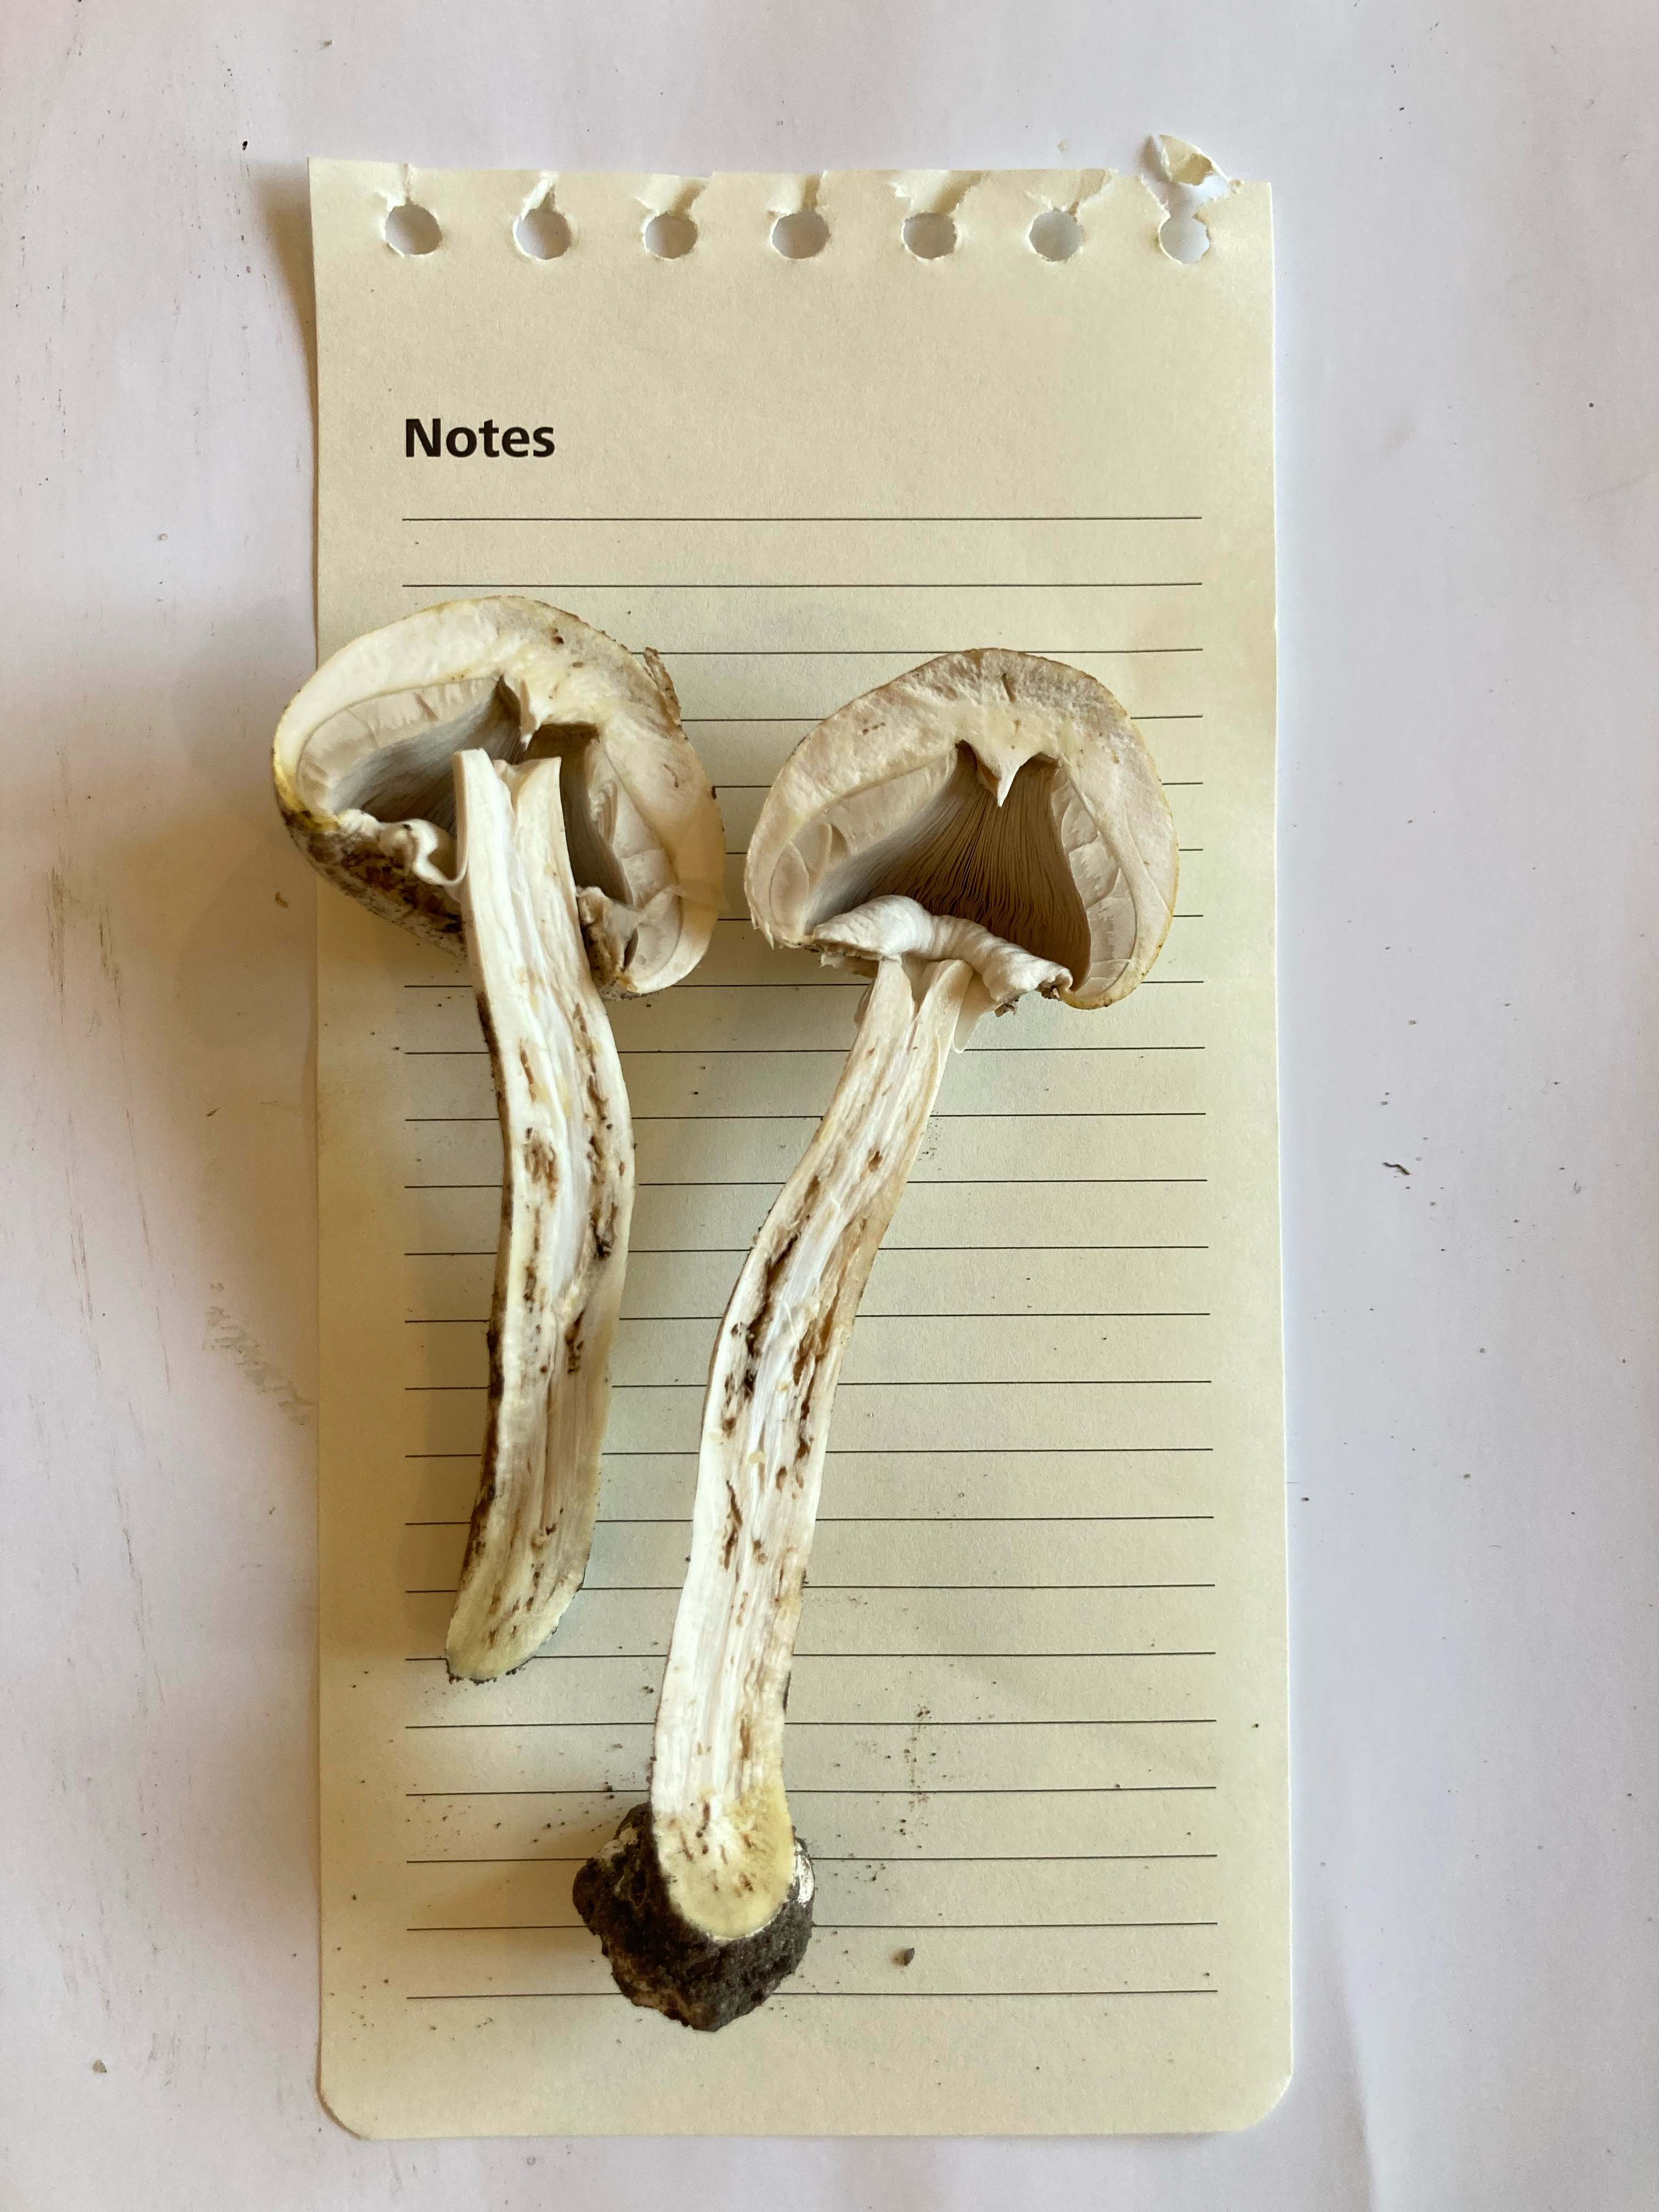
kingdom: Fungi
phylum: Basidiomycota
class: Agaricomycetes
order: Agaricales
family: Agaricaceae
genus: Agaricus
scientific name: Agaricus
